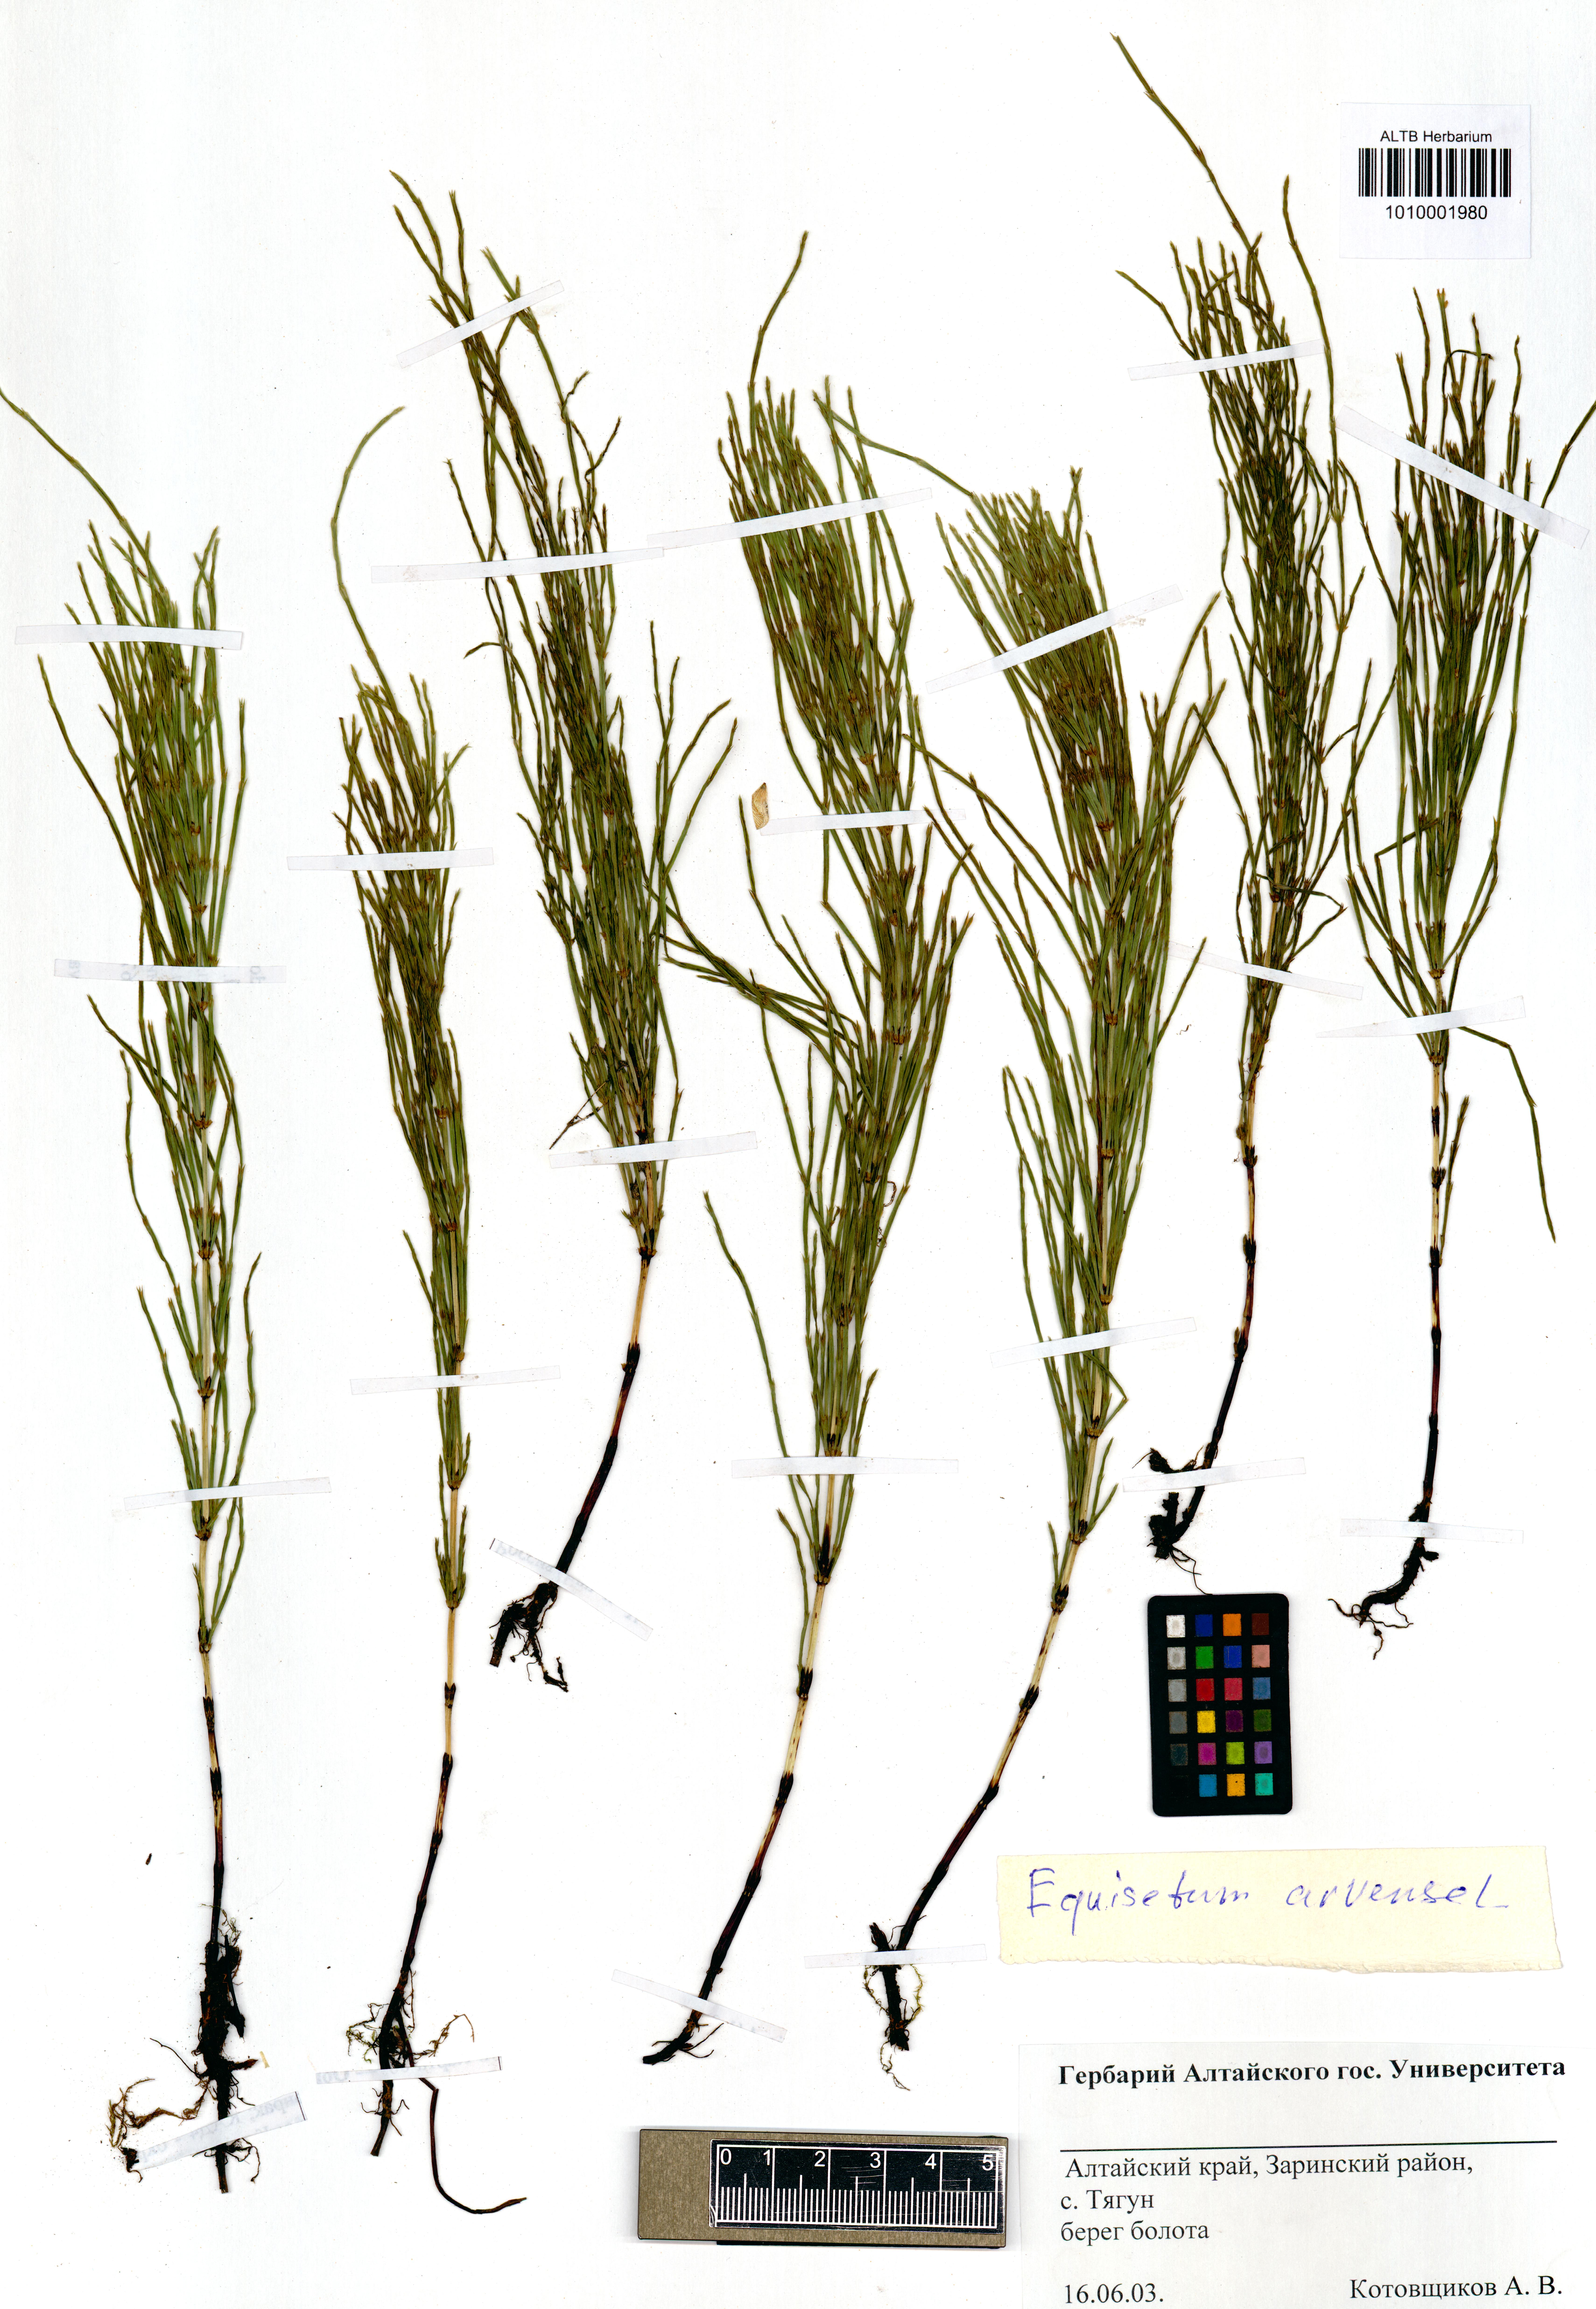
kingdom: Plantae
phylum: Tracheophyta
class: Polypodiopsida
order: Equisetales
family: Equisetaceae
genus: Equisetum
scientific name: Equisetum arvense
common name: Field horsetail
